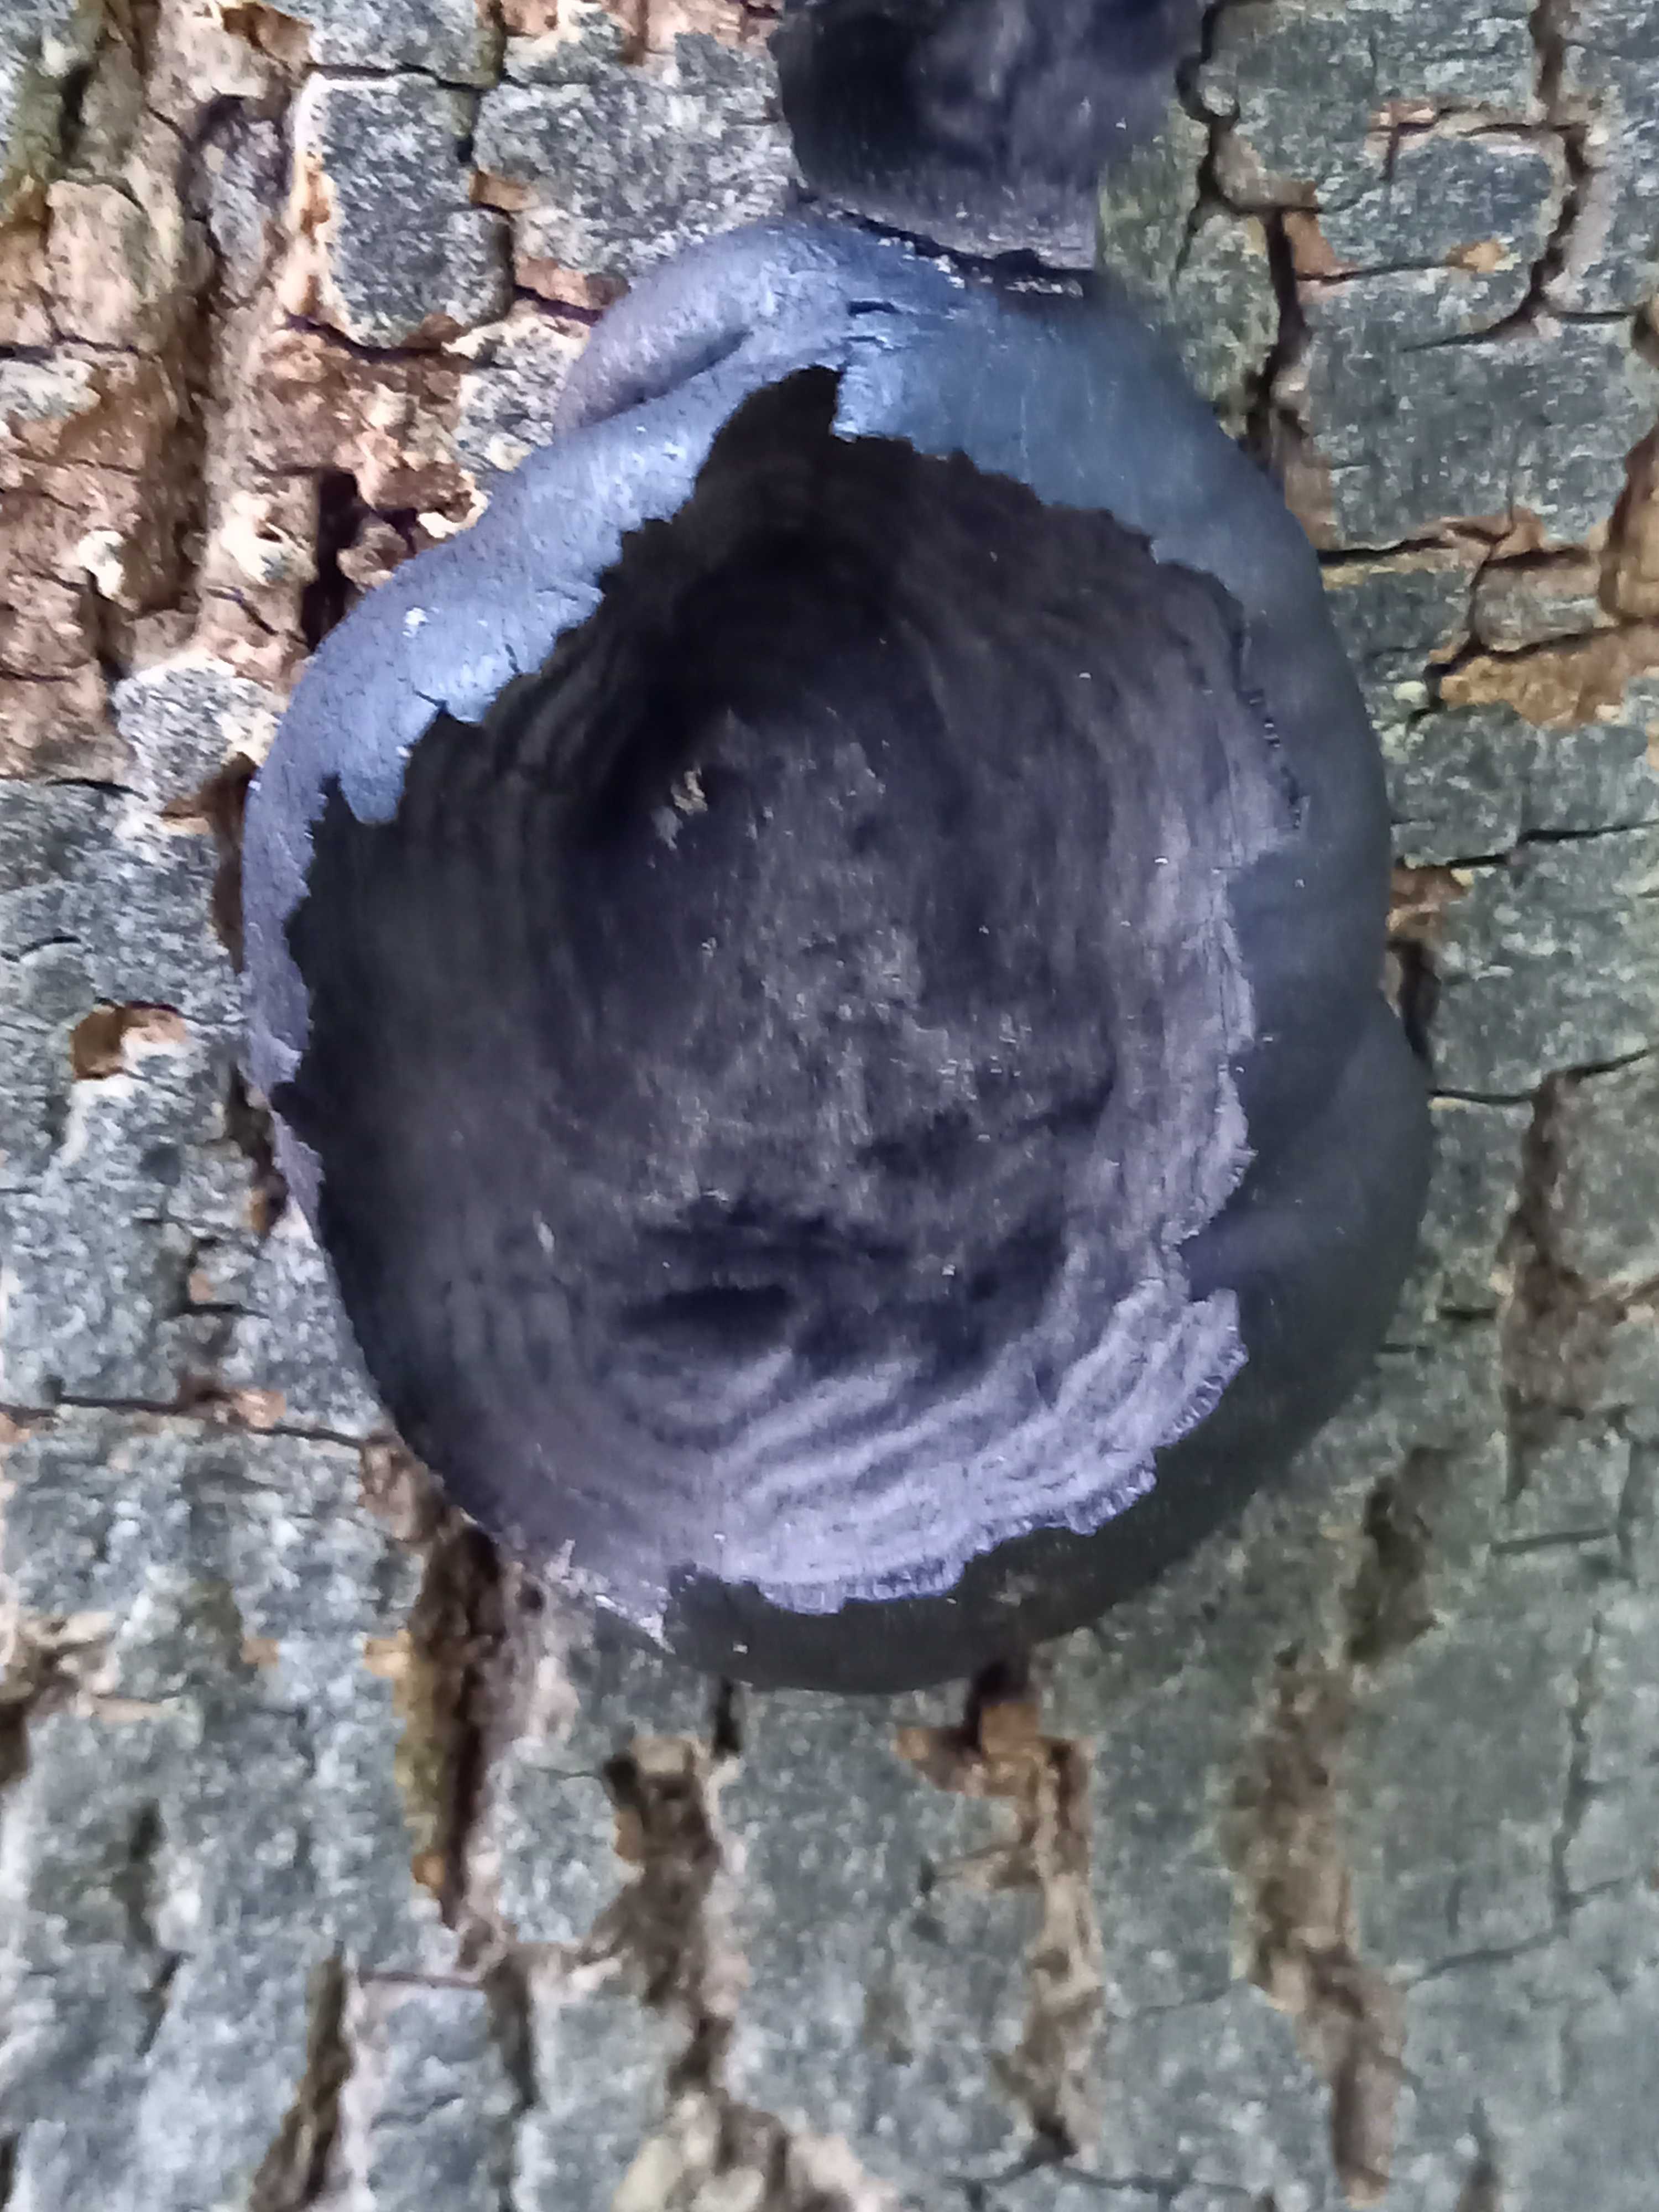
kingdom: Fungi
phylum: Ascomycota
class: Sordariomycetes
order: Xylariales
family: Hypoxylaceae
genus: Daldinia
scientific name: Daldinia concentrica
